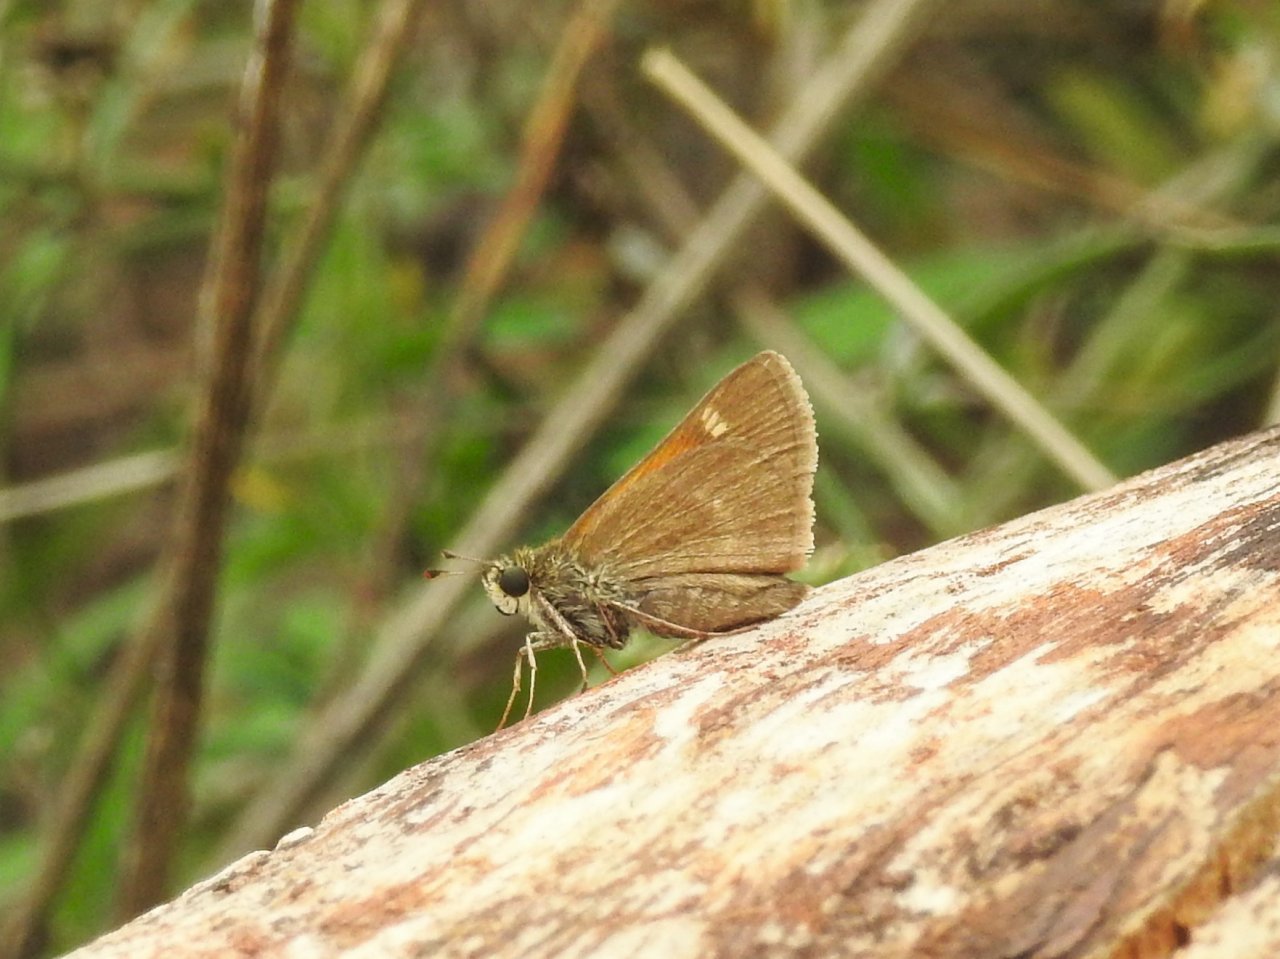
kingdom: Animalia
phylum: Arthropoda
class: Insecta
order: Lepidoptera
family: Hesperiidae
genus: Polites
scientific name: Polites themistocles
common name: Tawny-edged Skipper
